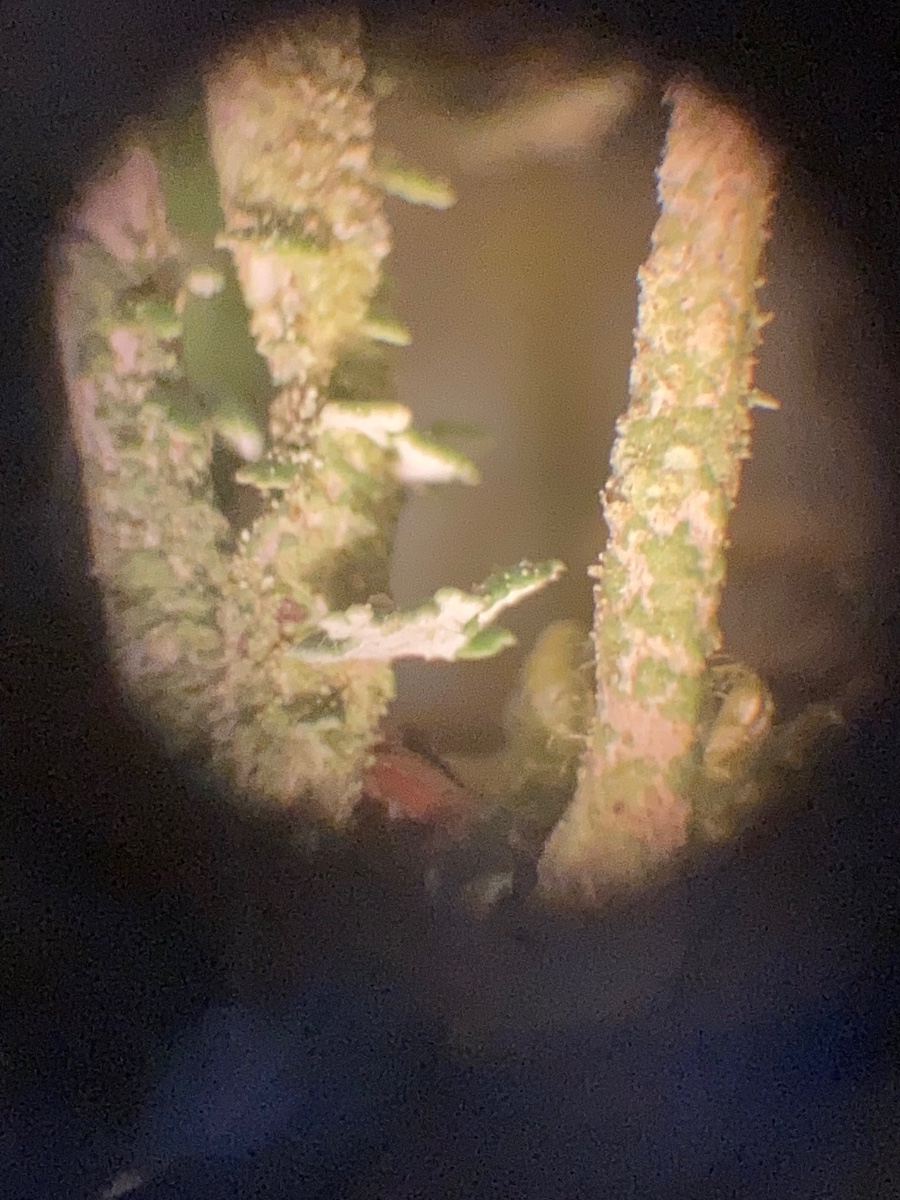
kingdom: Fungi
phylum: Ascomycota
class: Lecanoromycetes
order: Lecanorales
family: Cladoniaceae
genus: Cladonia
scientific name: Cladonia
